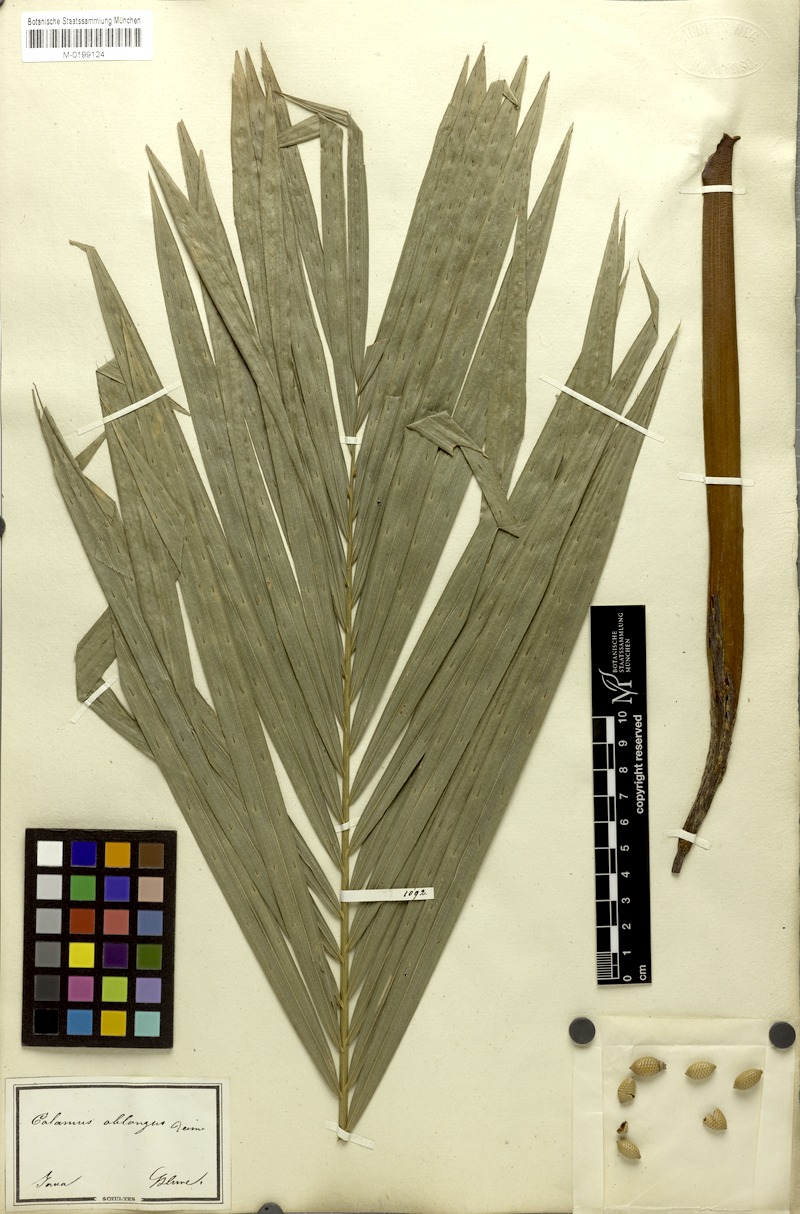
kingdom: Plantae
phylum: Tracheophyta
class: Liliopsida
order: Arecales
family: Arecaceae
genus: Calamus
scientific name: Calamus oblongus
